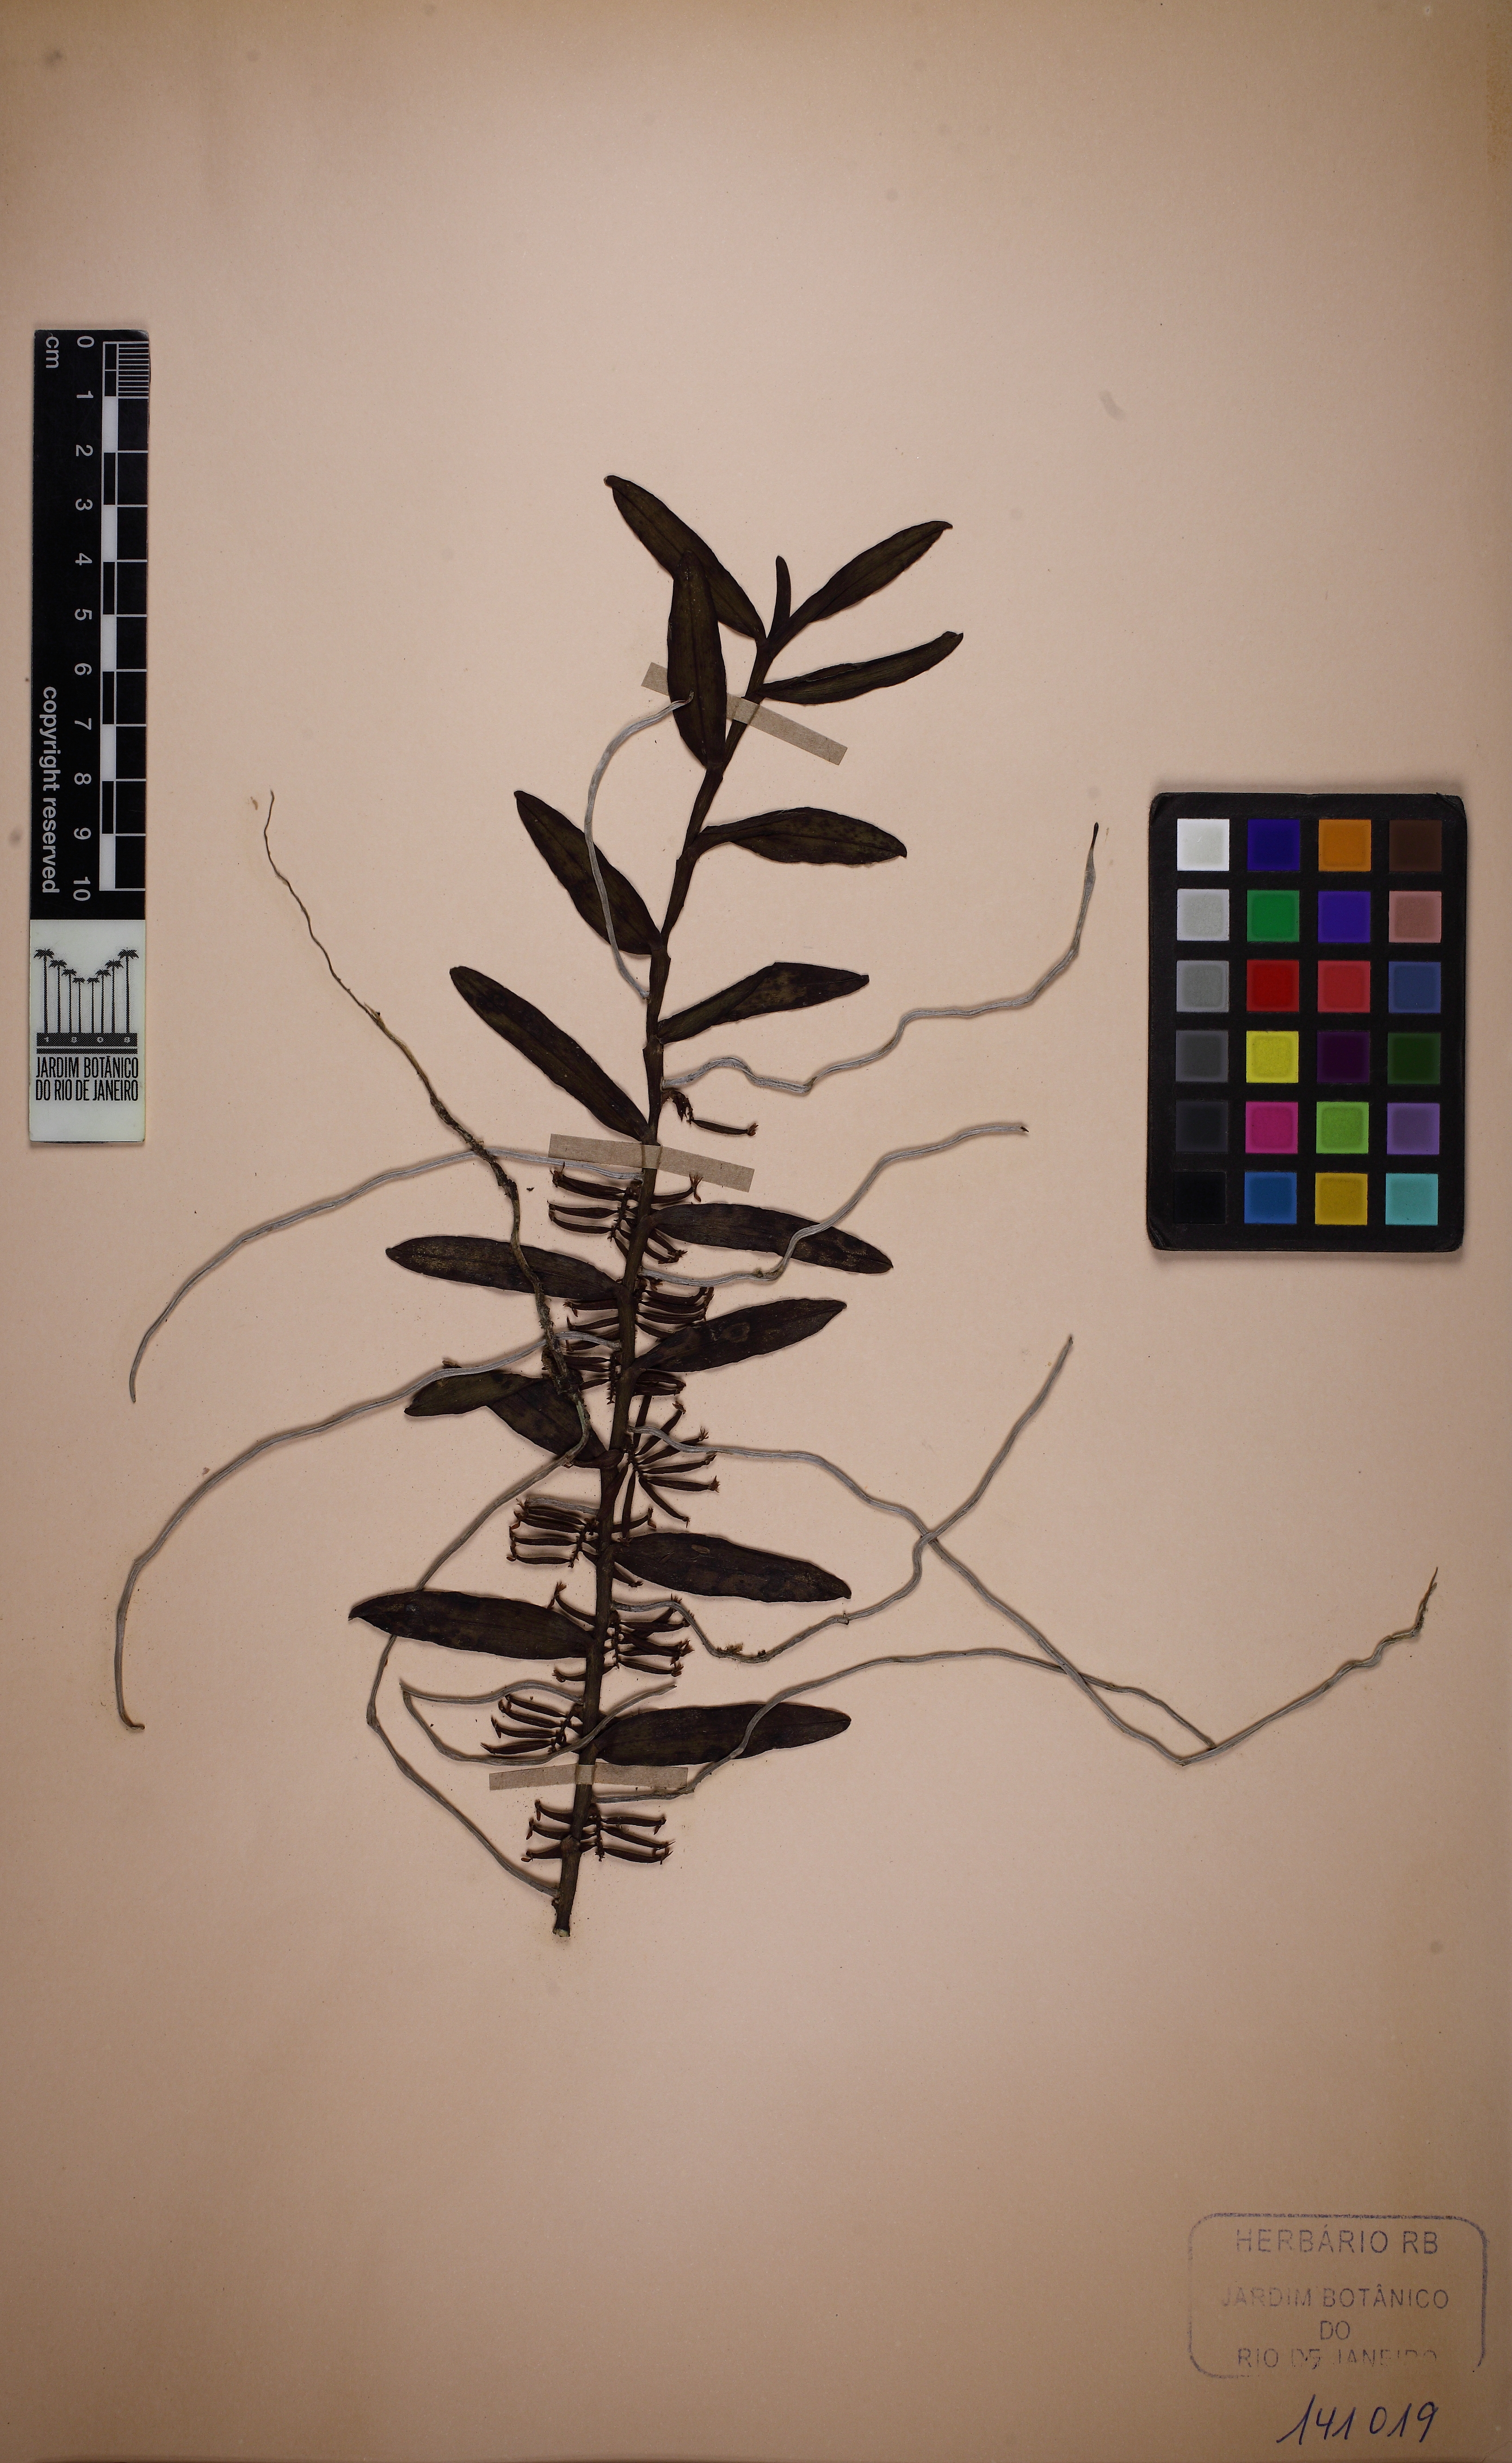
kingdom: Plantae
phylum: Tracheophyta
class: Liliopsida
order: Asparagales
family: Orchidaceae
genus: Campylocentrum
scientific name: Campylocentrum spannagelii
